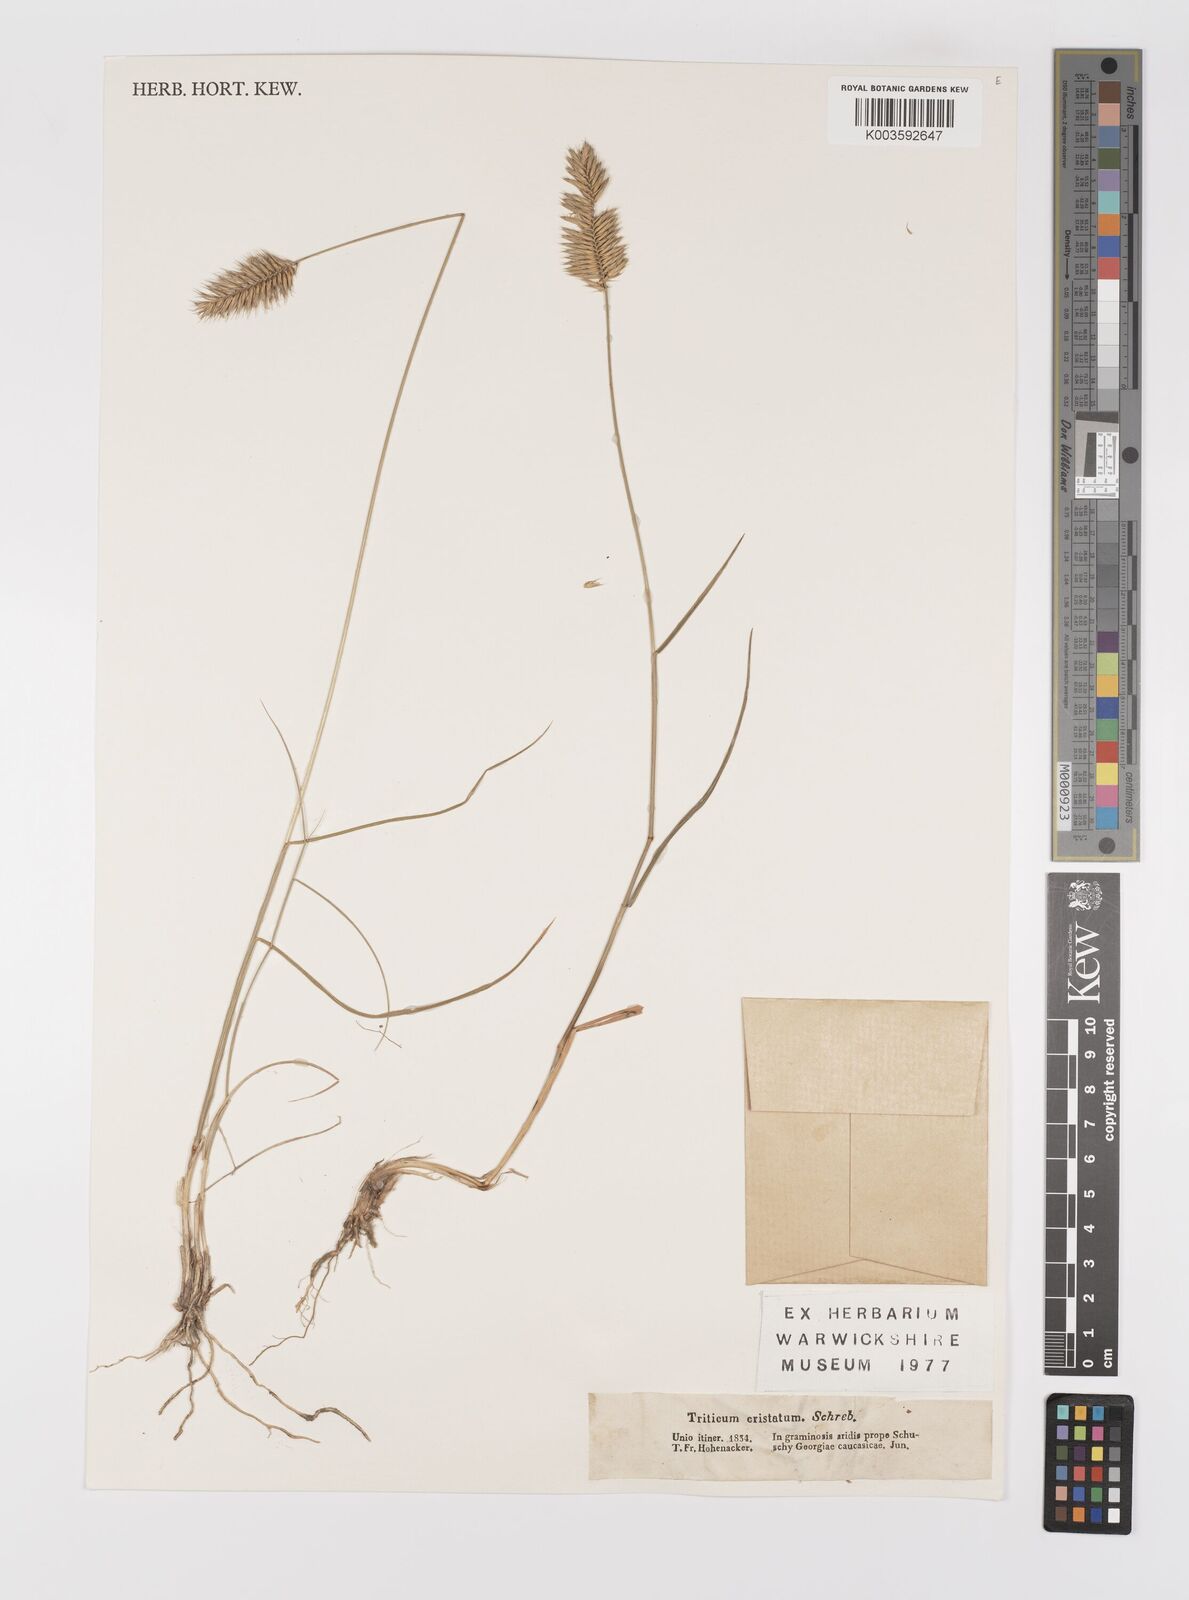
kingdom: Plantae
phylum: Tracheophyta
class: Liliopsida
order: Poales
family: Poaceae
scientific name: Poaceae
